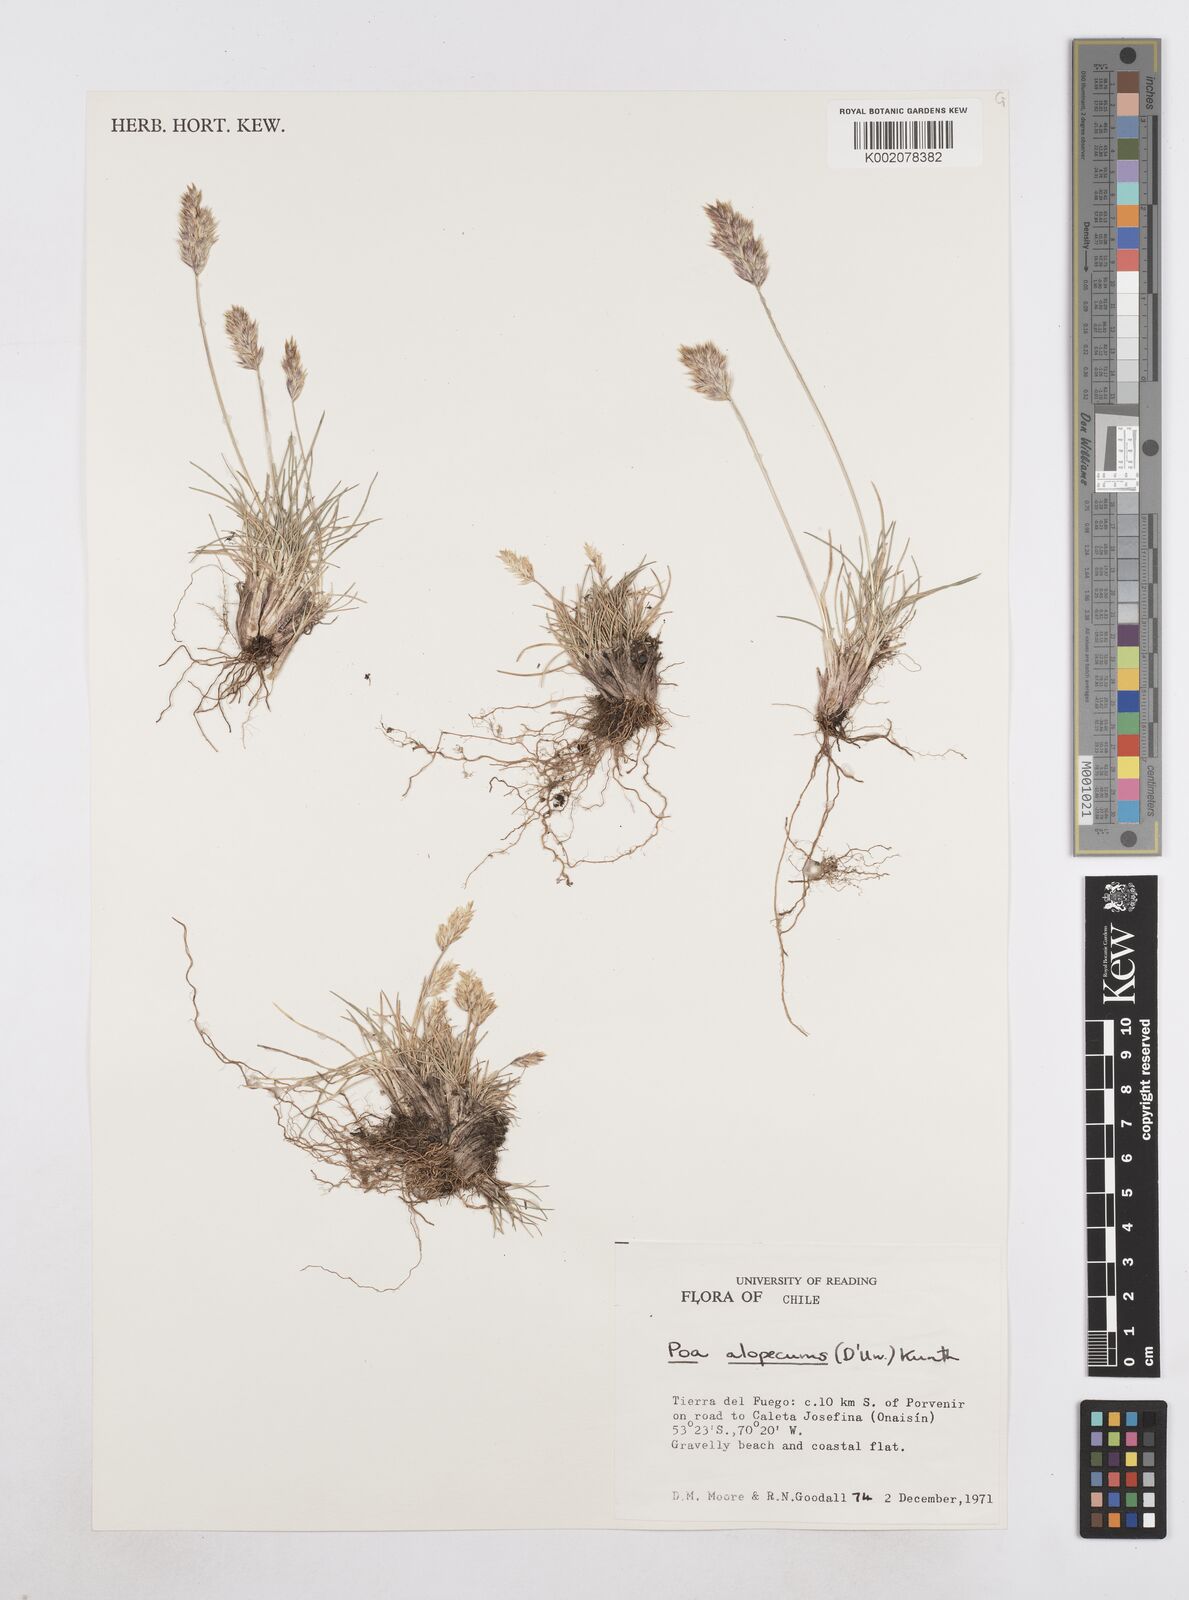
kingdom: Plantae
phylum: Tracheophyta
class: Liliopsida
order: Poales
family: Poaceae
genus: Poa
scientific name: Poa alopecurus
